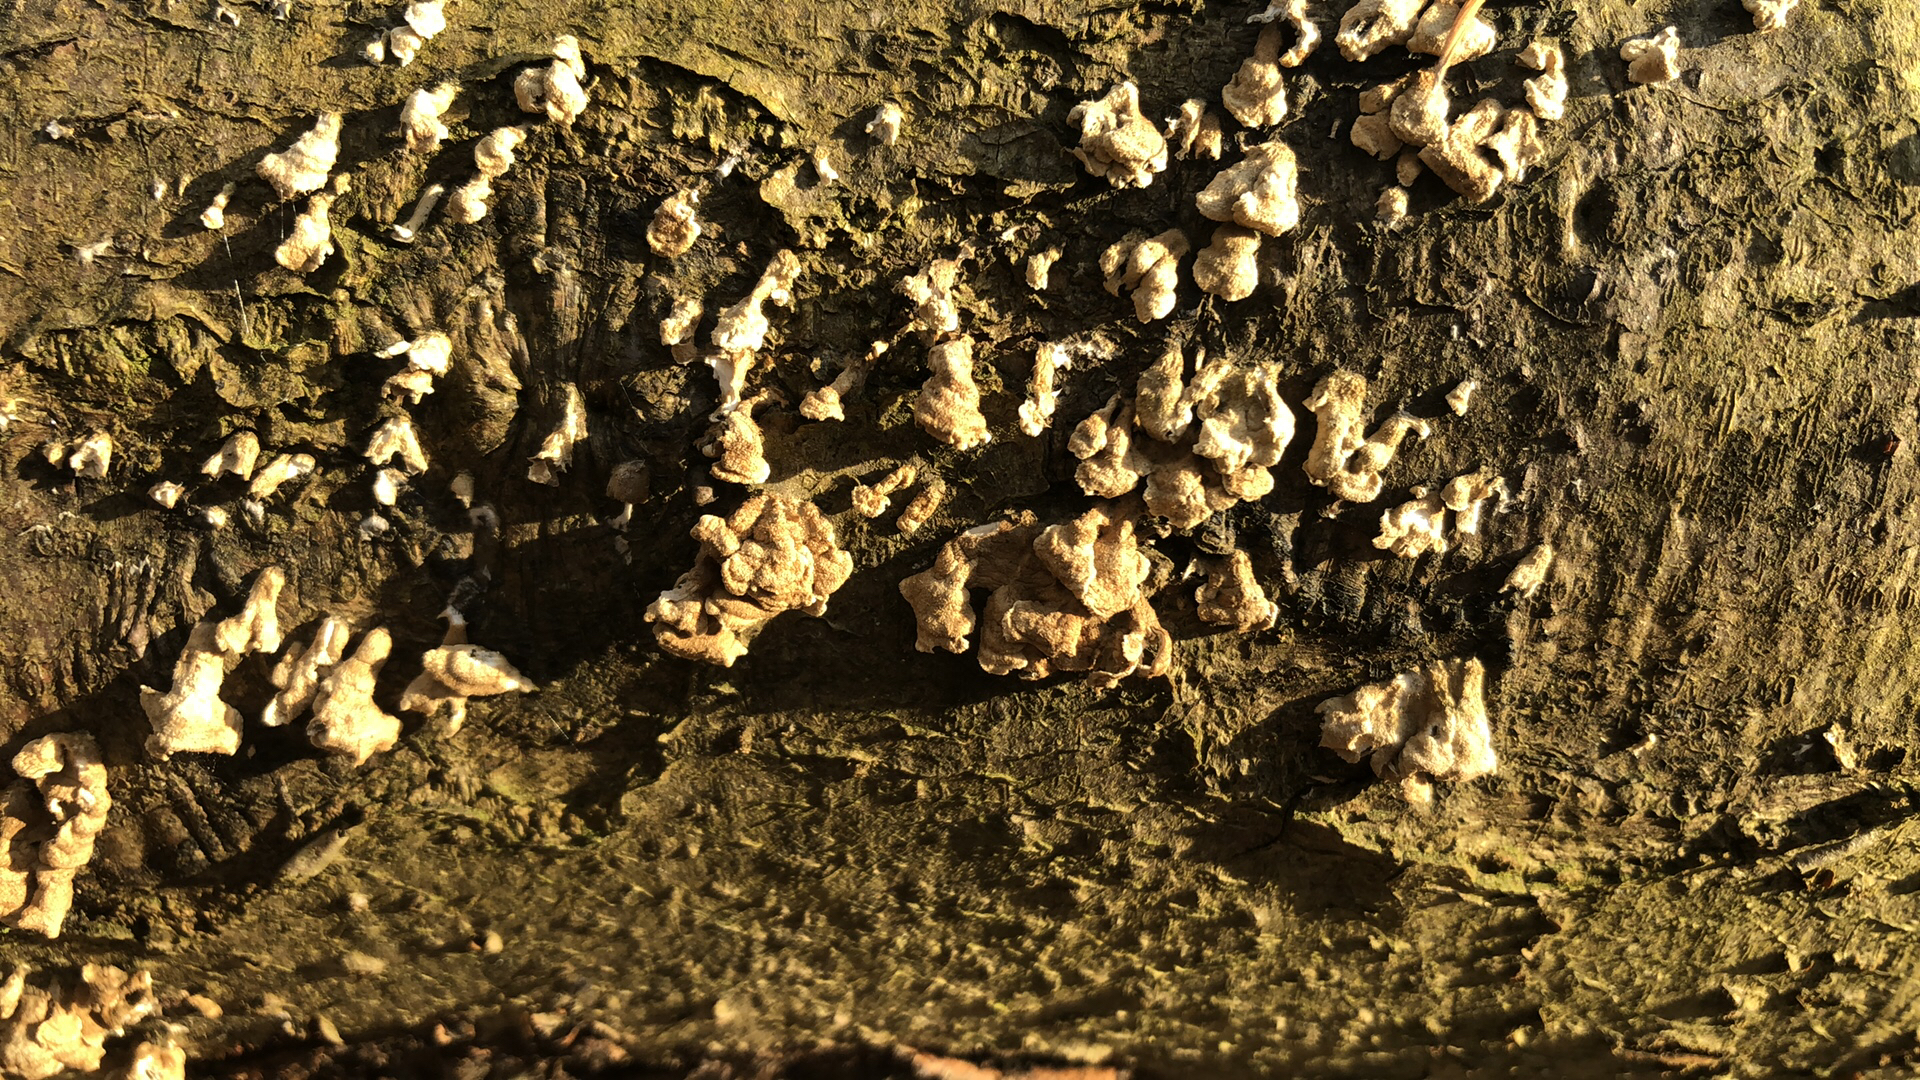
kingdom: Fungi
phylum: Basidiomycota
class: Agaricomycetes
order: Amylocorticiales
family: Amylocorticiaceae
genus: Plicaturopsis
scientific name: Plicaturopsis crispa
